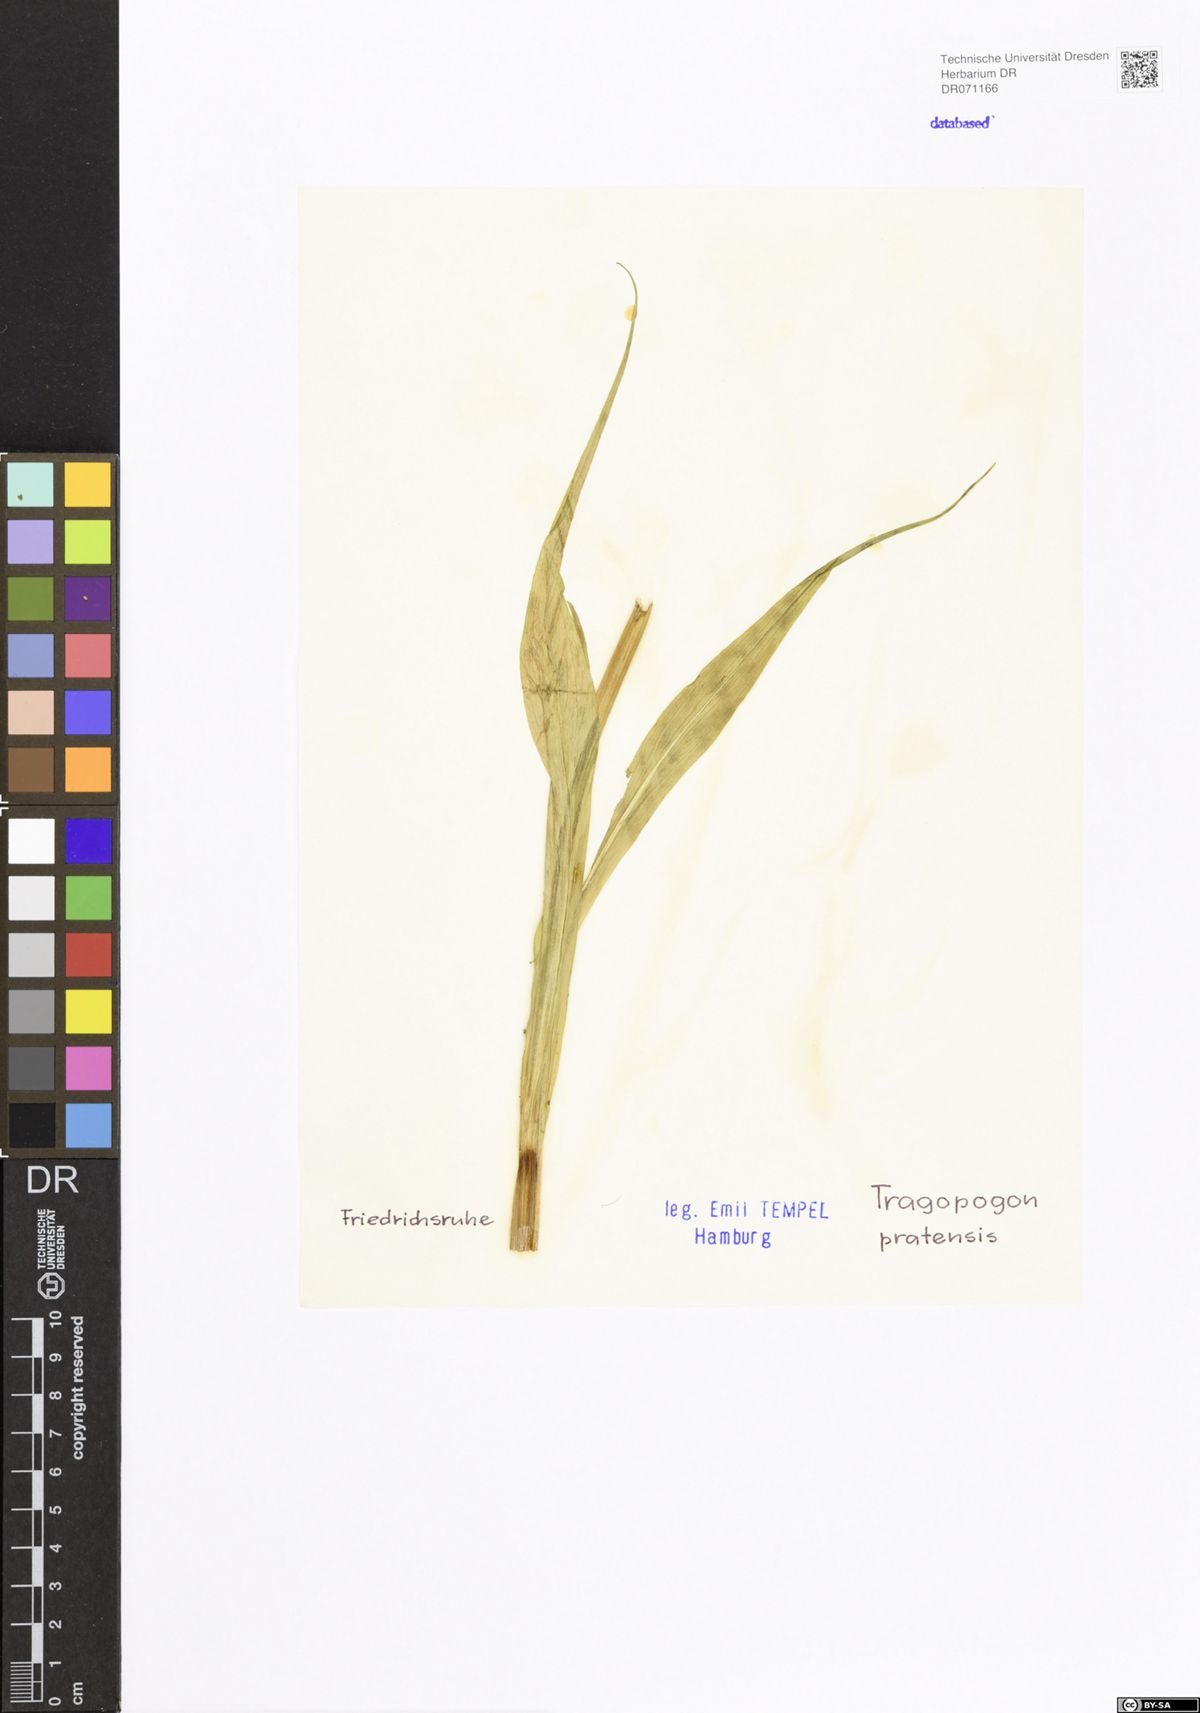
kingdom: Plantae
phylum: Tracheophyta
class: Magnoliopsida
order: Asterales
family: Asteraceae
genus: Tragopogon
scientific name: Tragopogon pratensis
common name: Goat's-beard
